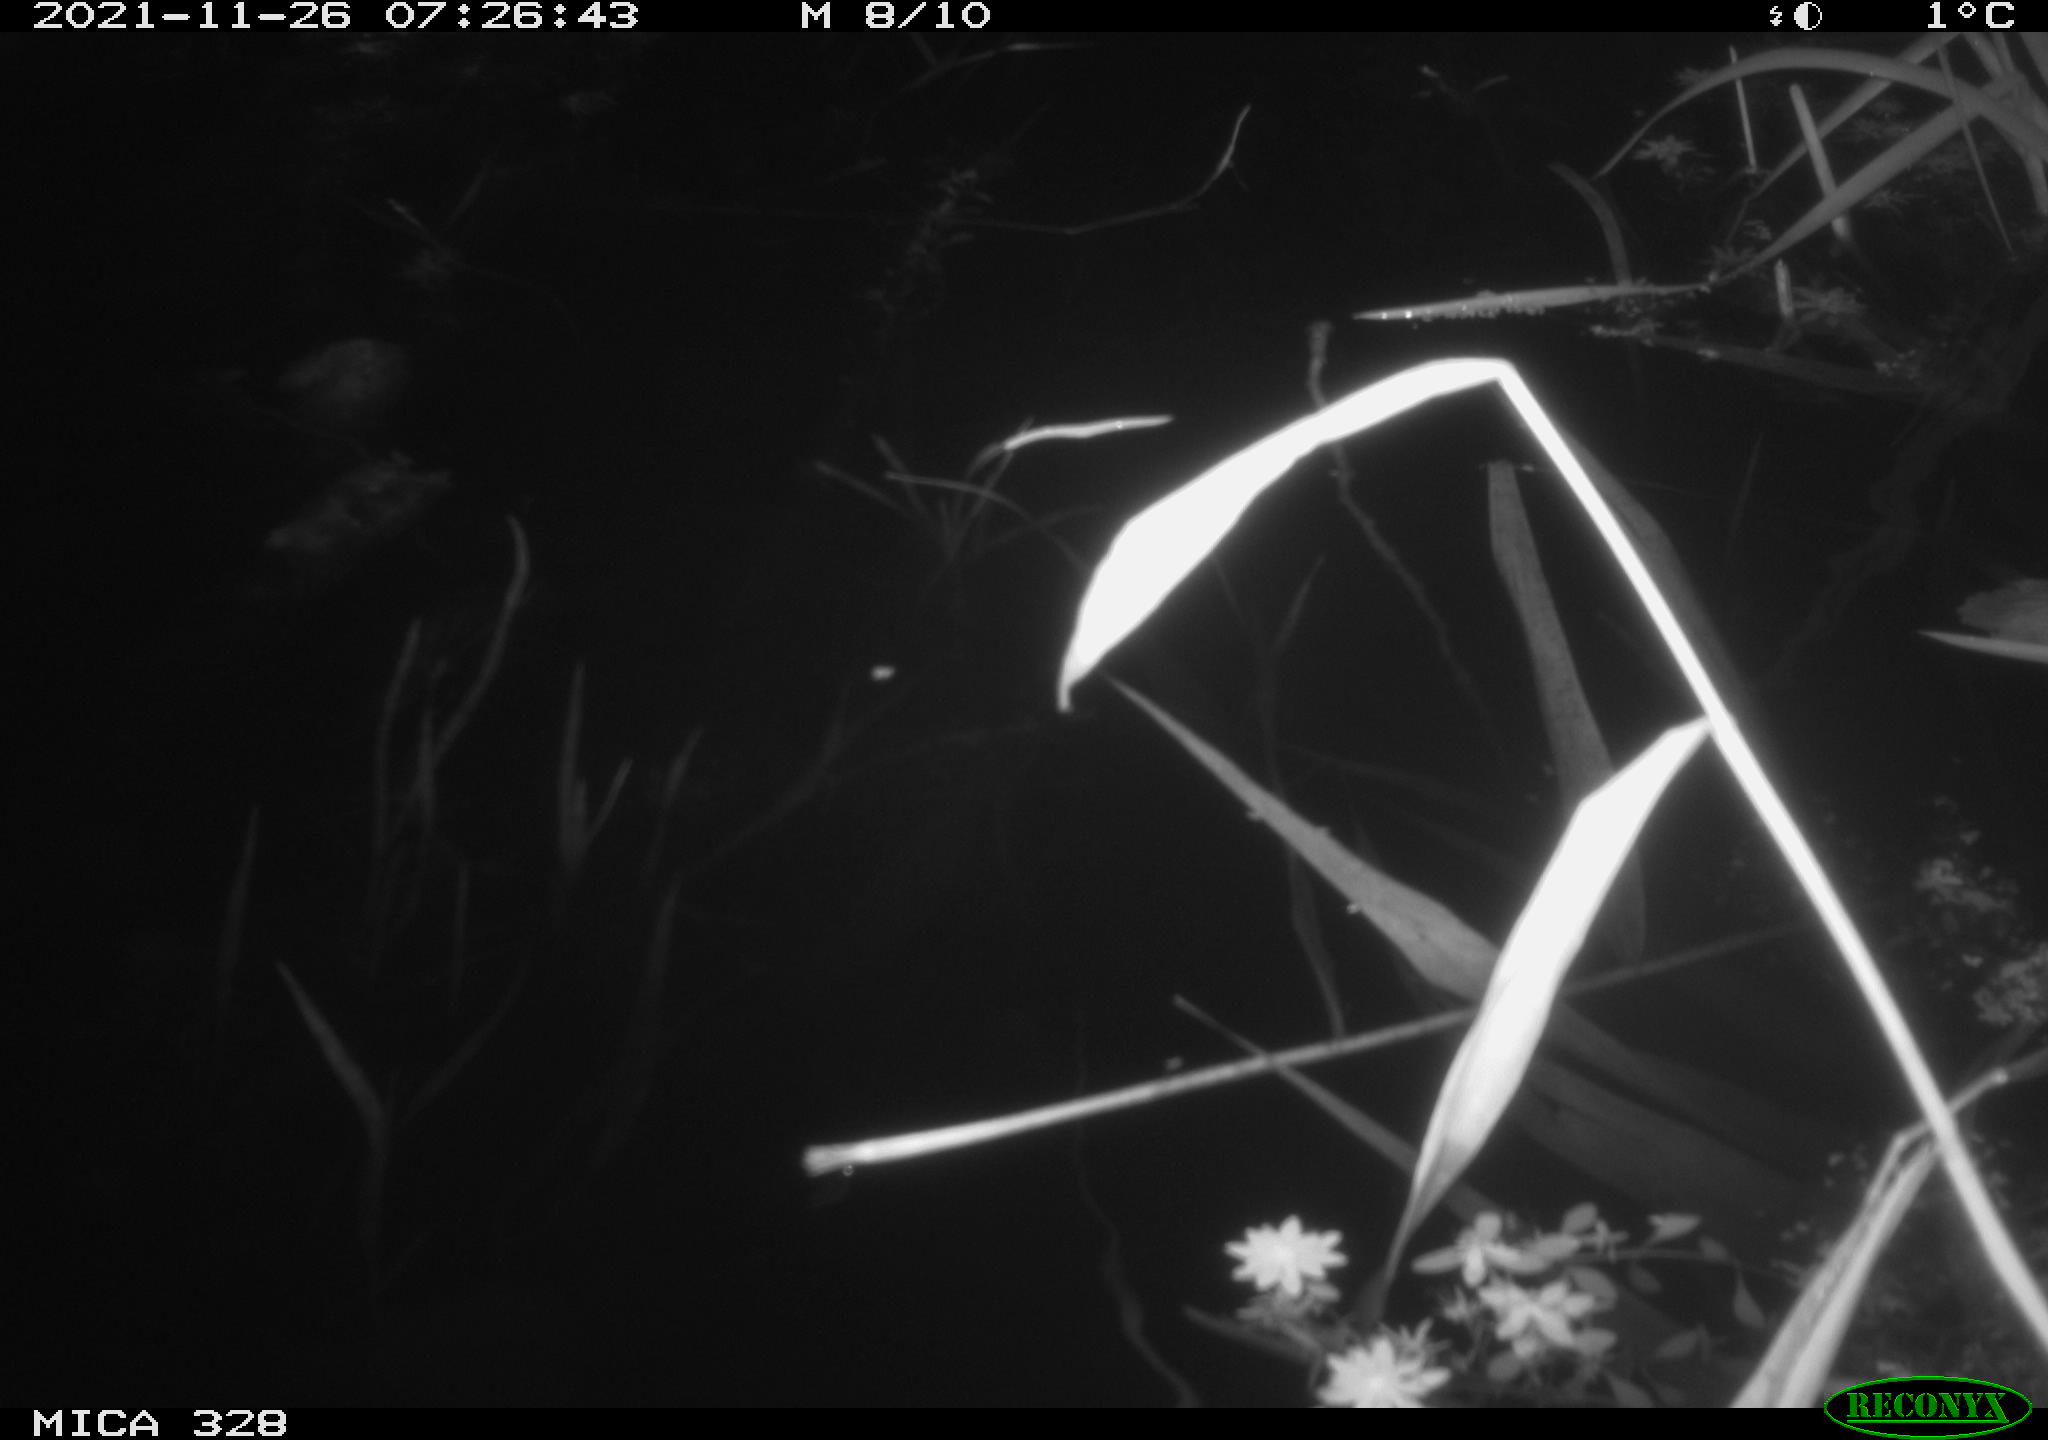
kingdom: Animalia
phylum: Chordata
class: Mammalia
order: Rodentia
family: Cricetidae
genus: Ondatra
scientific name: Ondatra zibethicus
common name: Muskrat
